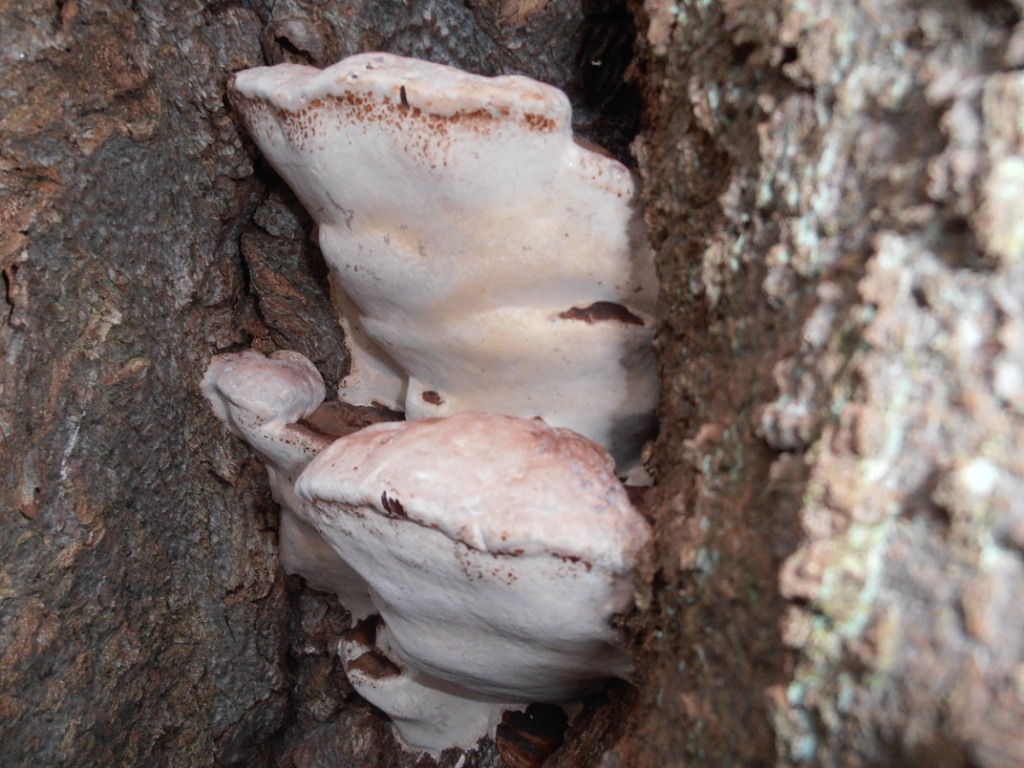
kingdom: Fungi
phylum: Basidiomycota
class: Agaricomycetes
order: Polyporales
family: Polyporaceae
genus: Ganoderma
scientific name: Ganoderma adspersum
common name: grov lakporesvamp
